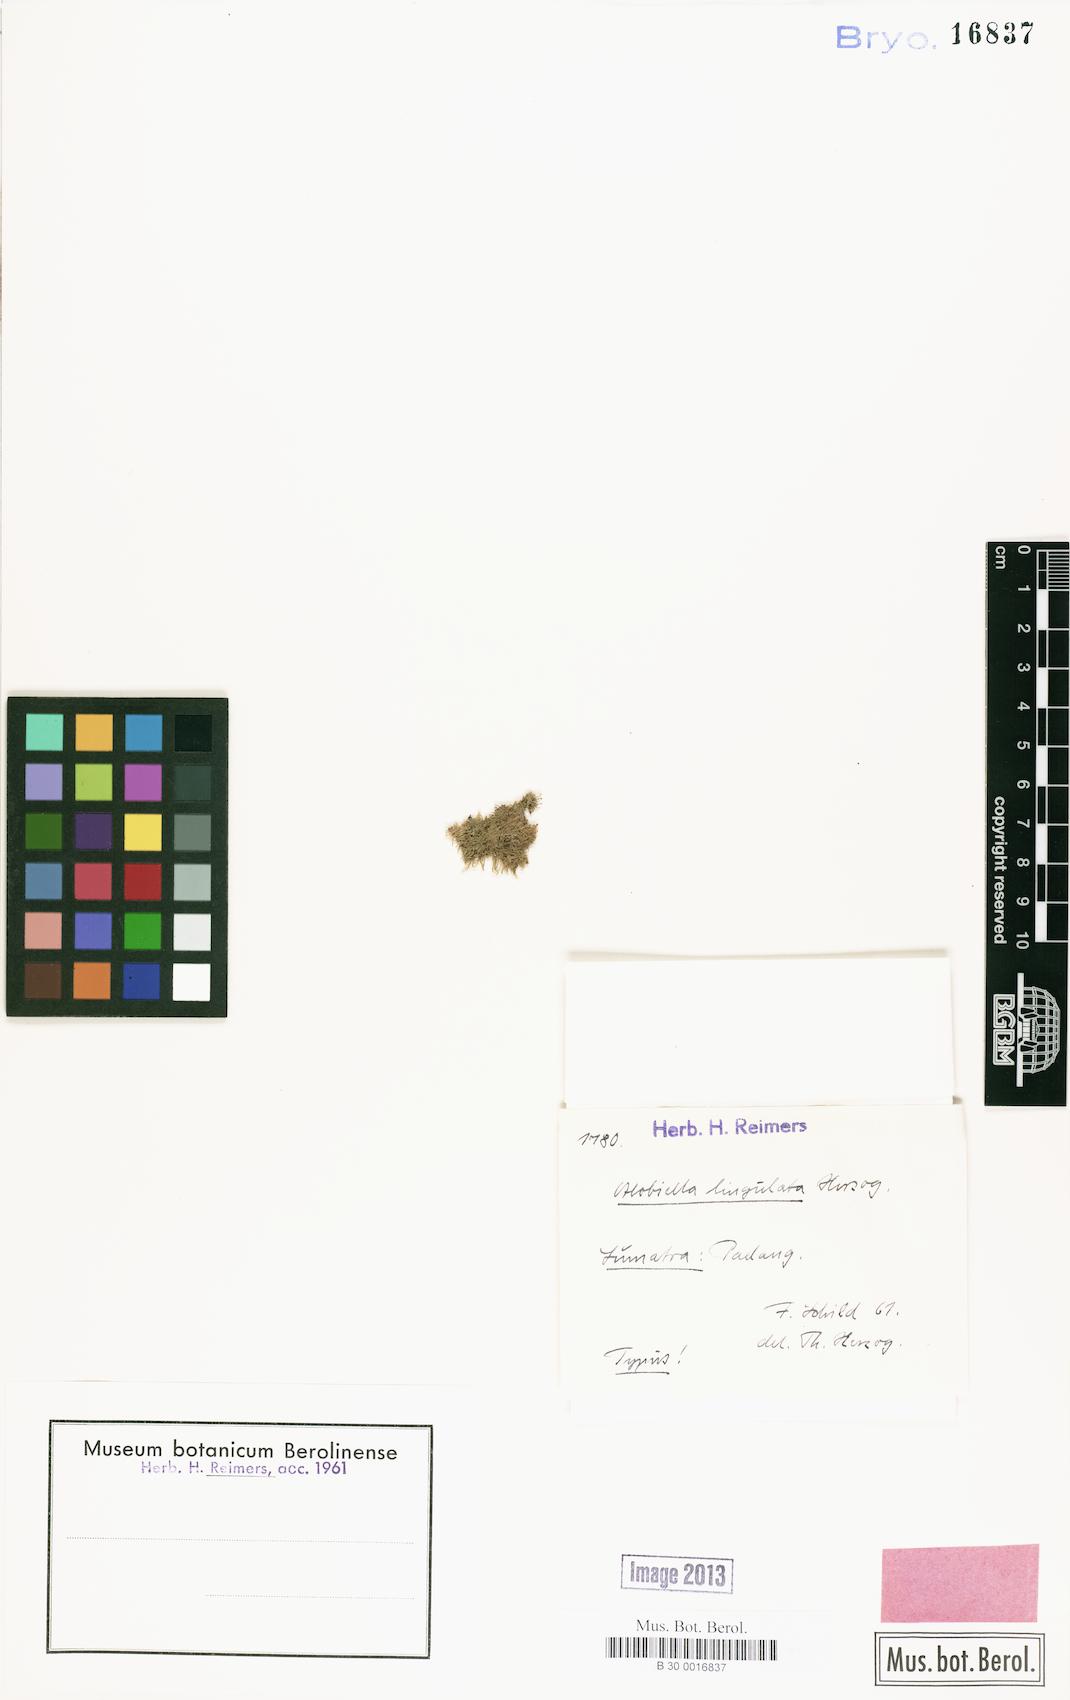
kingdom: Plantae
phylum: Marchantiophyta
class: Jungermanniopsida
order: Jungermanniales
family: Notoscyphaceae
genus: Notoscyphus
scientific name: Notoscyphus lutescens
